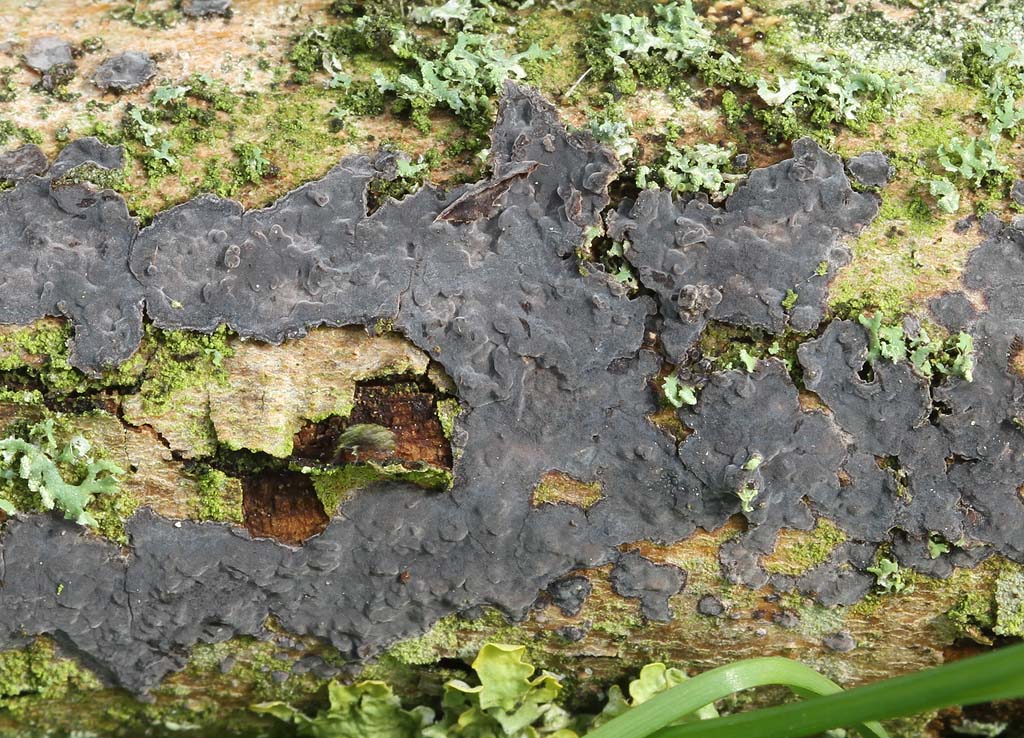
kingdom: Fungi
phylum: Basidiomycota
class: Agaricomycetes
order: Russulales
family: Peniophoraceae
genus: Peniophora
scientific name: Peniophora limitata
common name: mørkrandet voksskind
